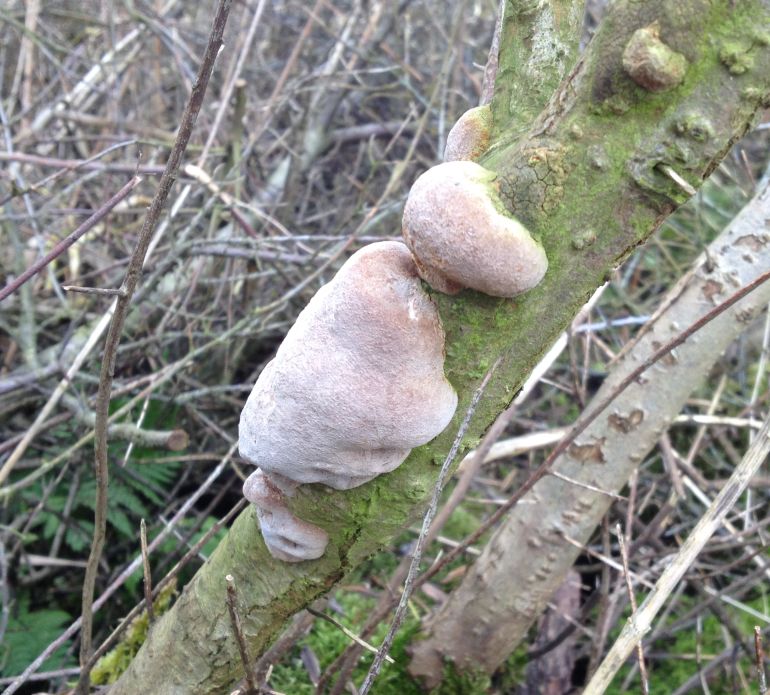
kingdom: Fungi
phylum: Basidiomycota
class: Agaricomycetes
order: Hymenochaetales
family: Hymenochaetaceae
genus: Phellinus
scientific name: Phellinus pomaceus
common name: blomme-ildporesvamp
